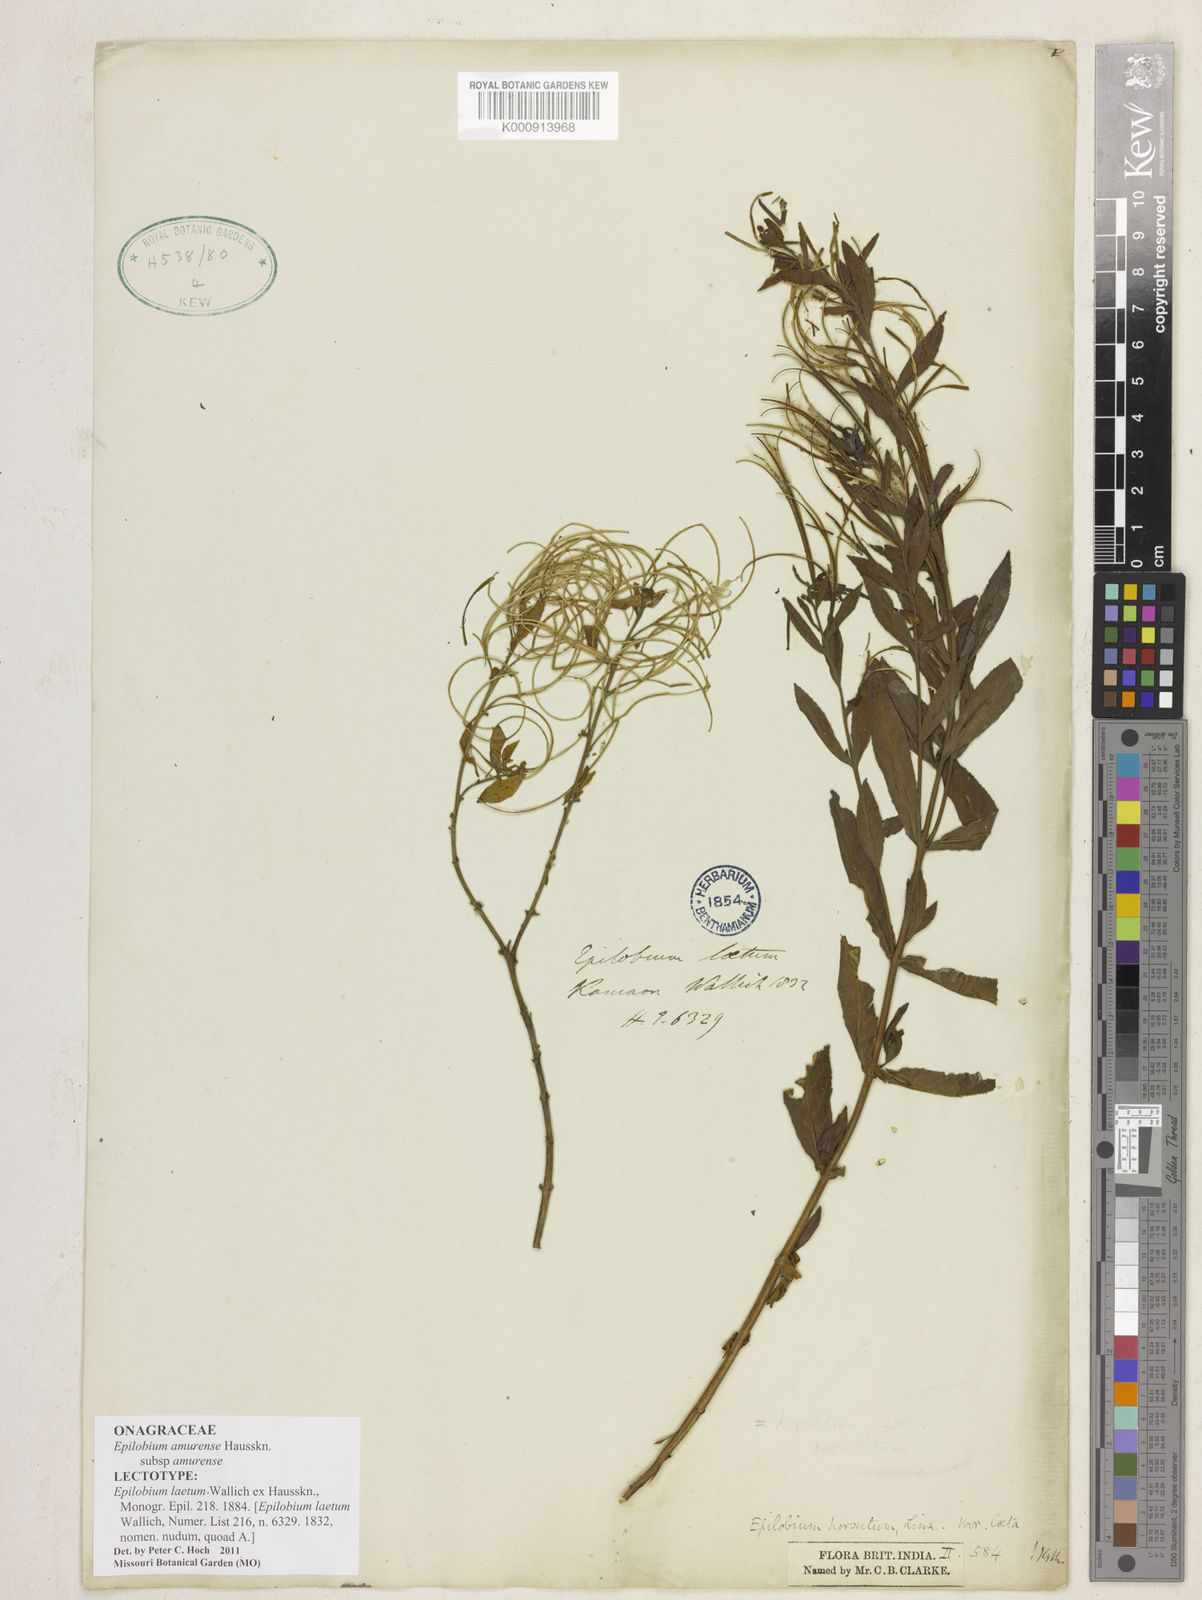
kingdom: Plantae
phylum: Tracheophyta
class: Magnoliopsida
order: Myrtales
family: Onagraceae
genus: Epilobium
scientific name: Epilobium amurense
